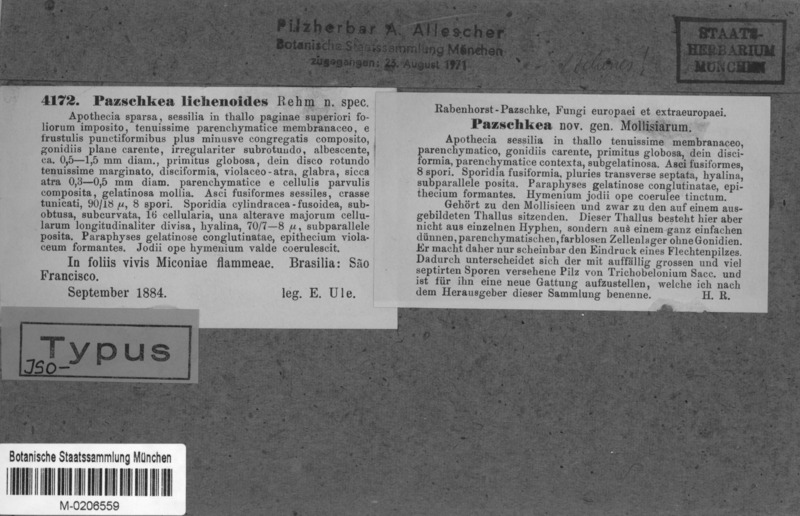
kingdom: Fungi
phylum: Ascomycota
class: Lecanoromycetes
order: Lecanorales
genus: Pazschkea
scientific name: Pazschkea lichenoides
